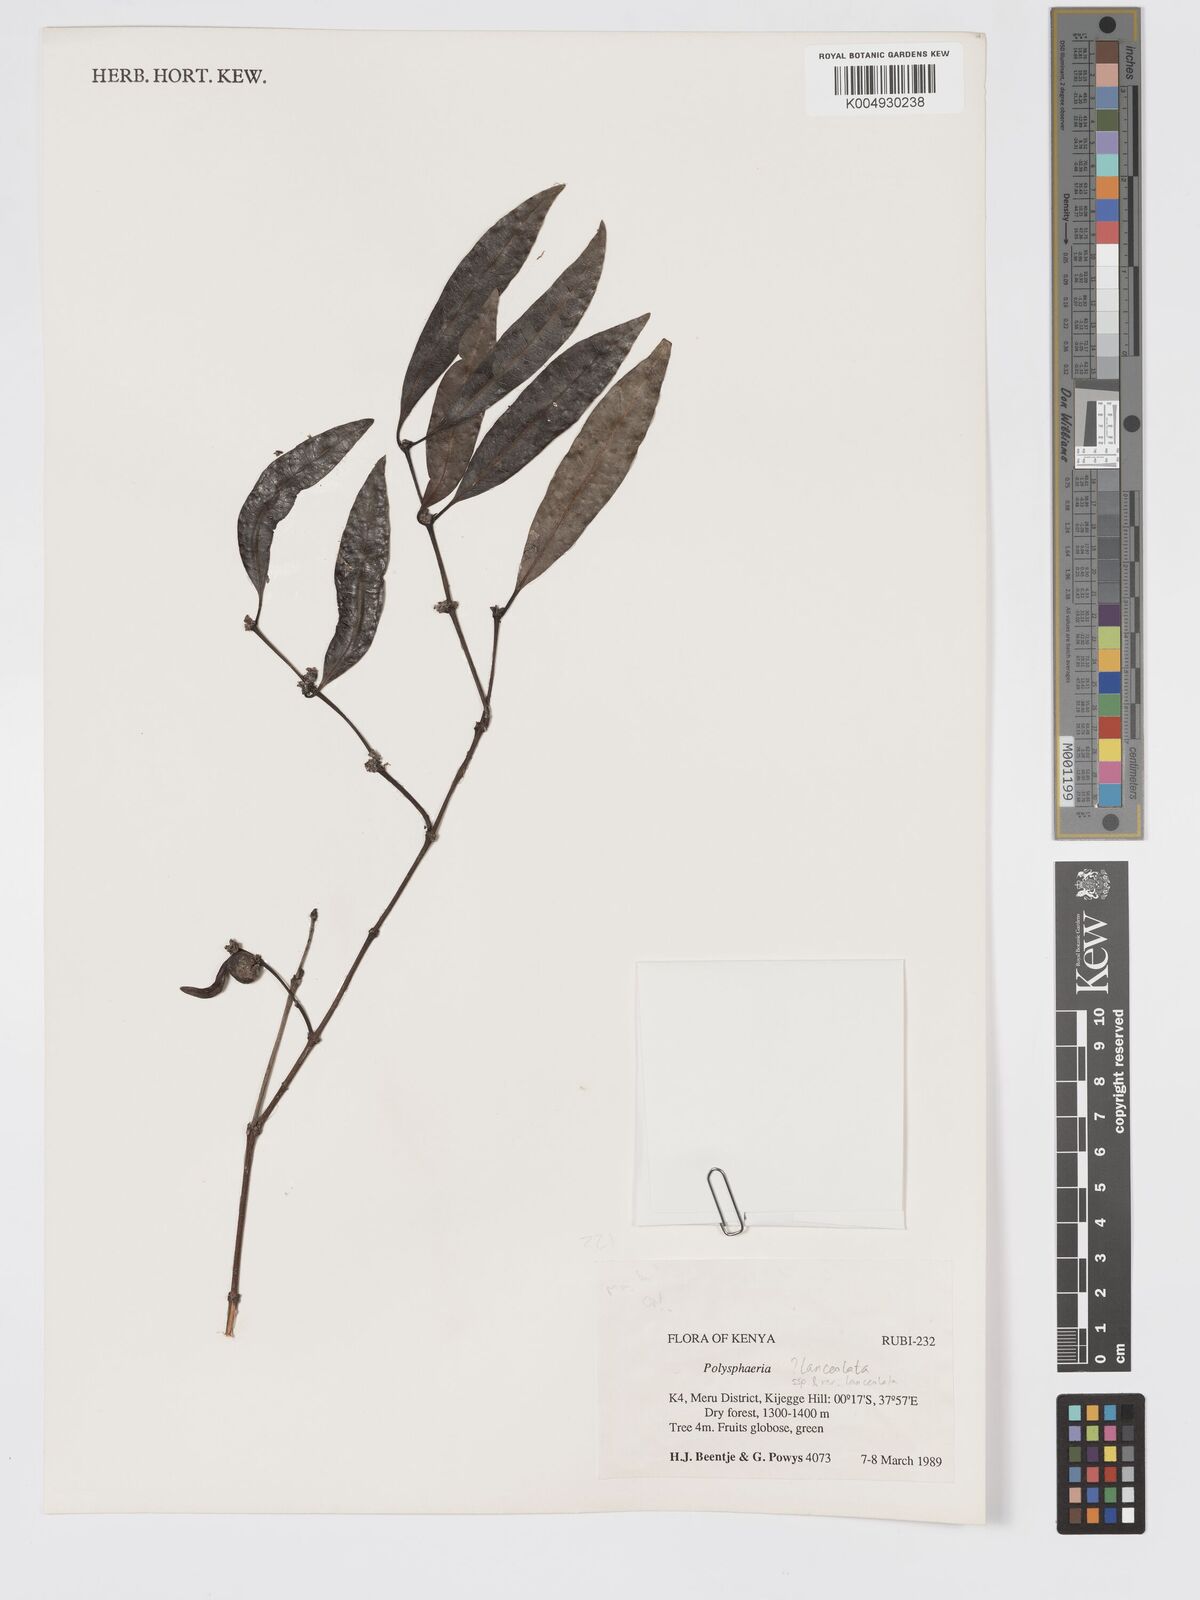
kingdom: Plantae
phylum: Tracheophyta
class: Magnoliopsida
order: Gentianales
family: Rubiaceae
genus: Polysphaeria
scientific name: Polysphaeria lanceolata
